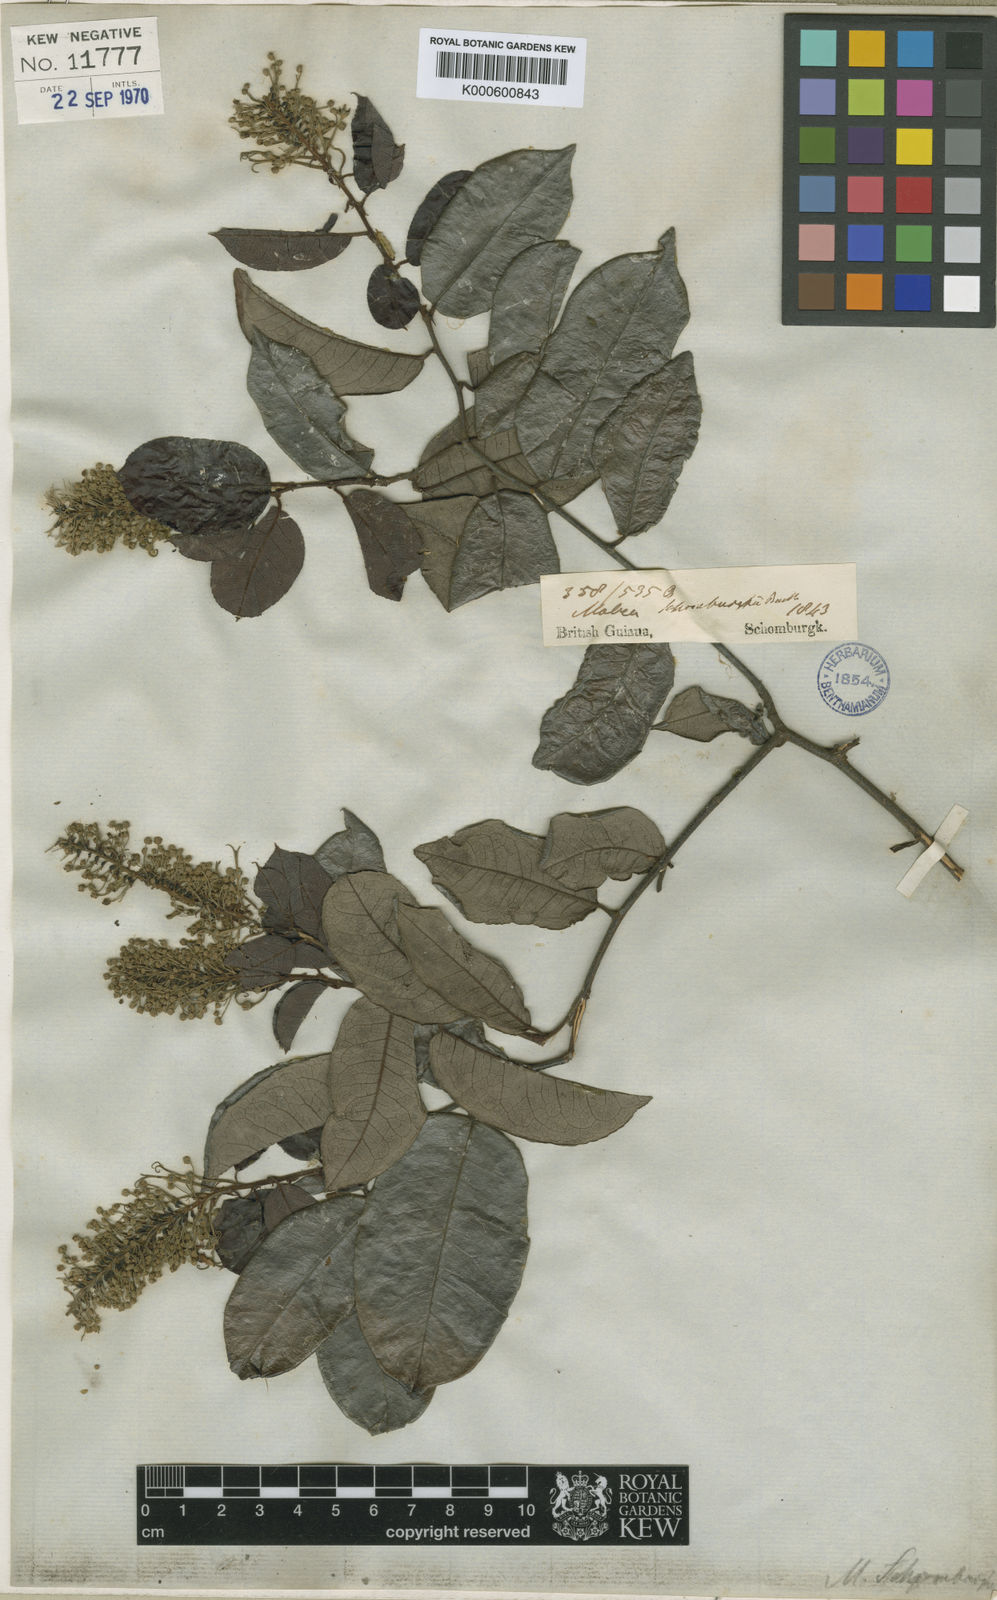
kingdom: Plantae
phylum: Tracheophyta
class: Magnoliopsida
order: Malpighiales
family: Euphorbiaceae
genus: Mabea
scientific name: Mabea taquari
